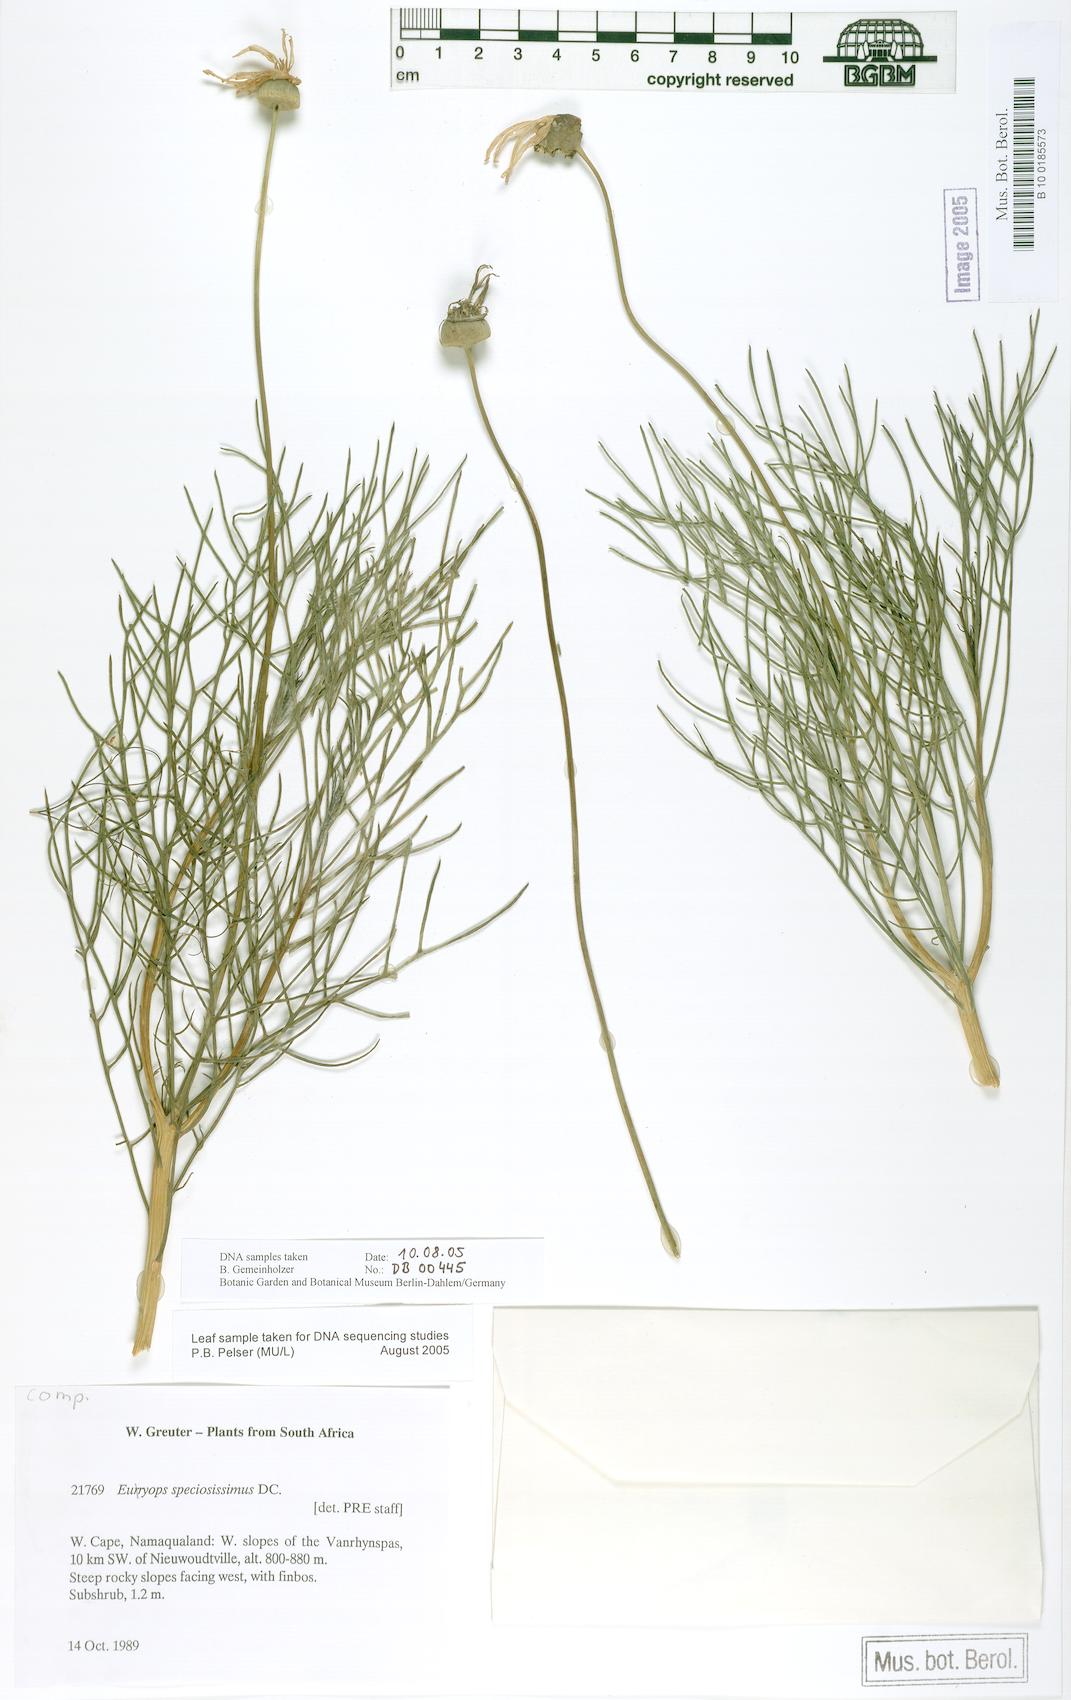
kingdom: Plantae
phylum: Tracheophyta
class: Magnoliopsida
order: Asterales
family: Asteraceae
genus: Euryops
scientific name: Euryops speciosissimus
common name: Clanwilliam daisy
